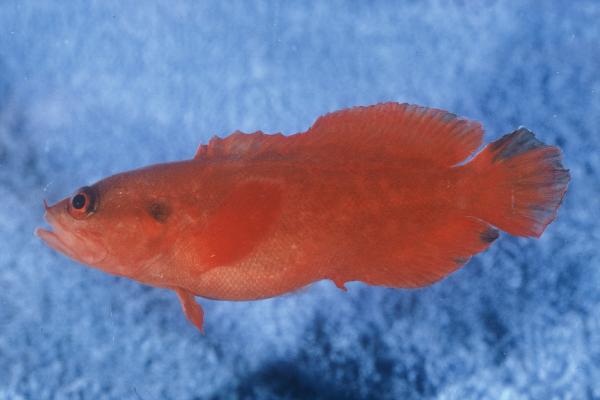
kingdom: Animalia
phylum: Chordata
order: Perciformes
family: Serranidae
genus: Suttonia
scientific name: Suttonia suttoni
